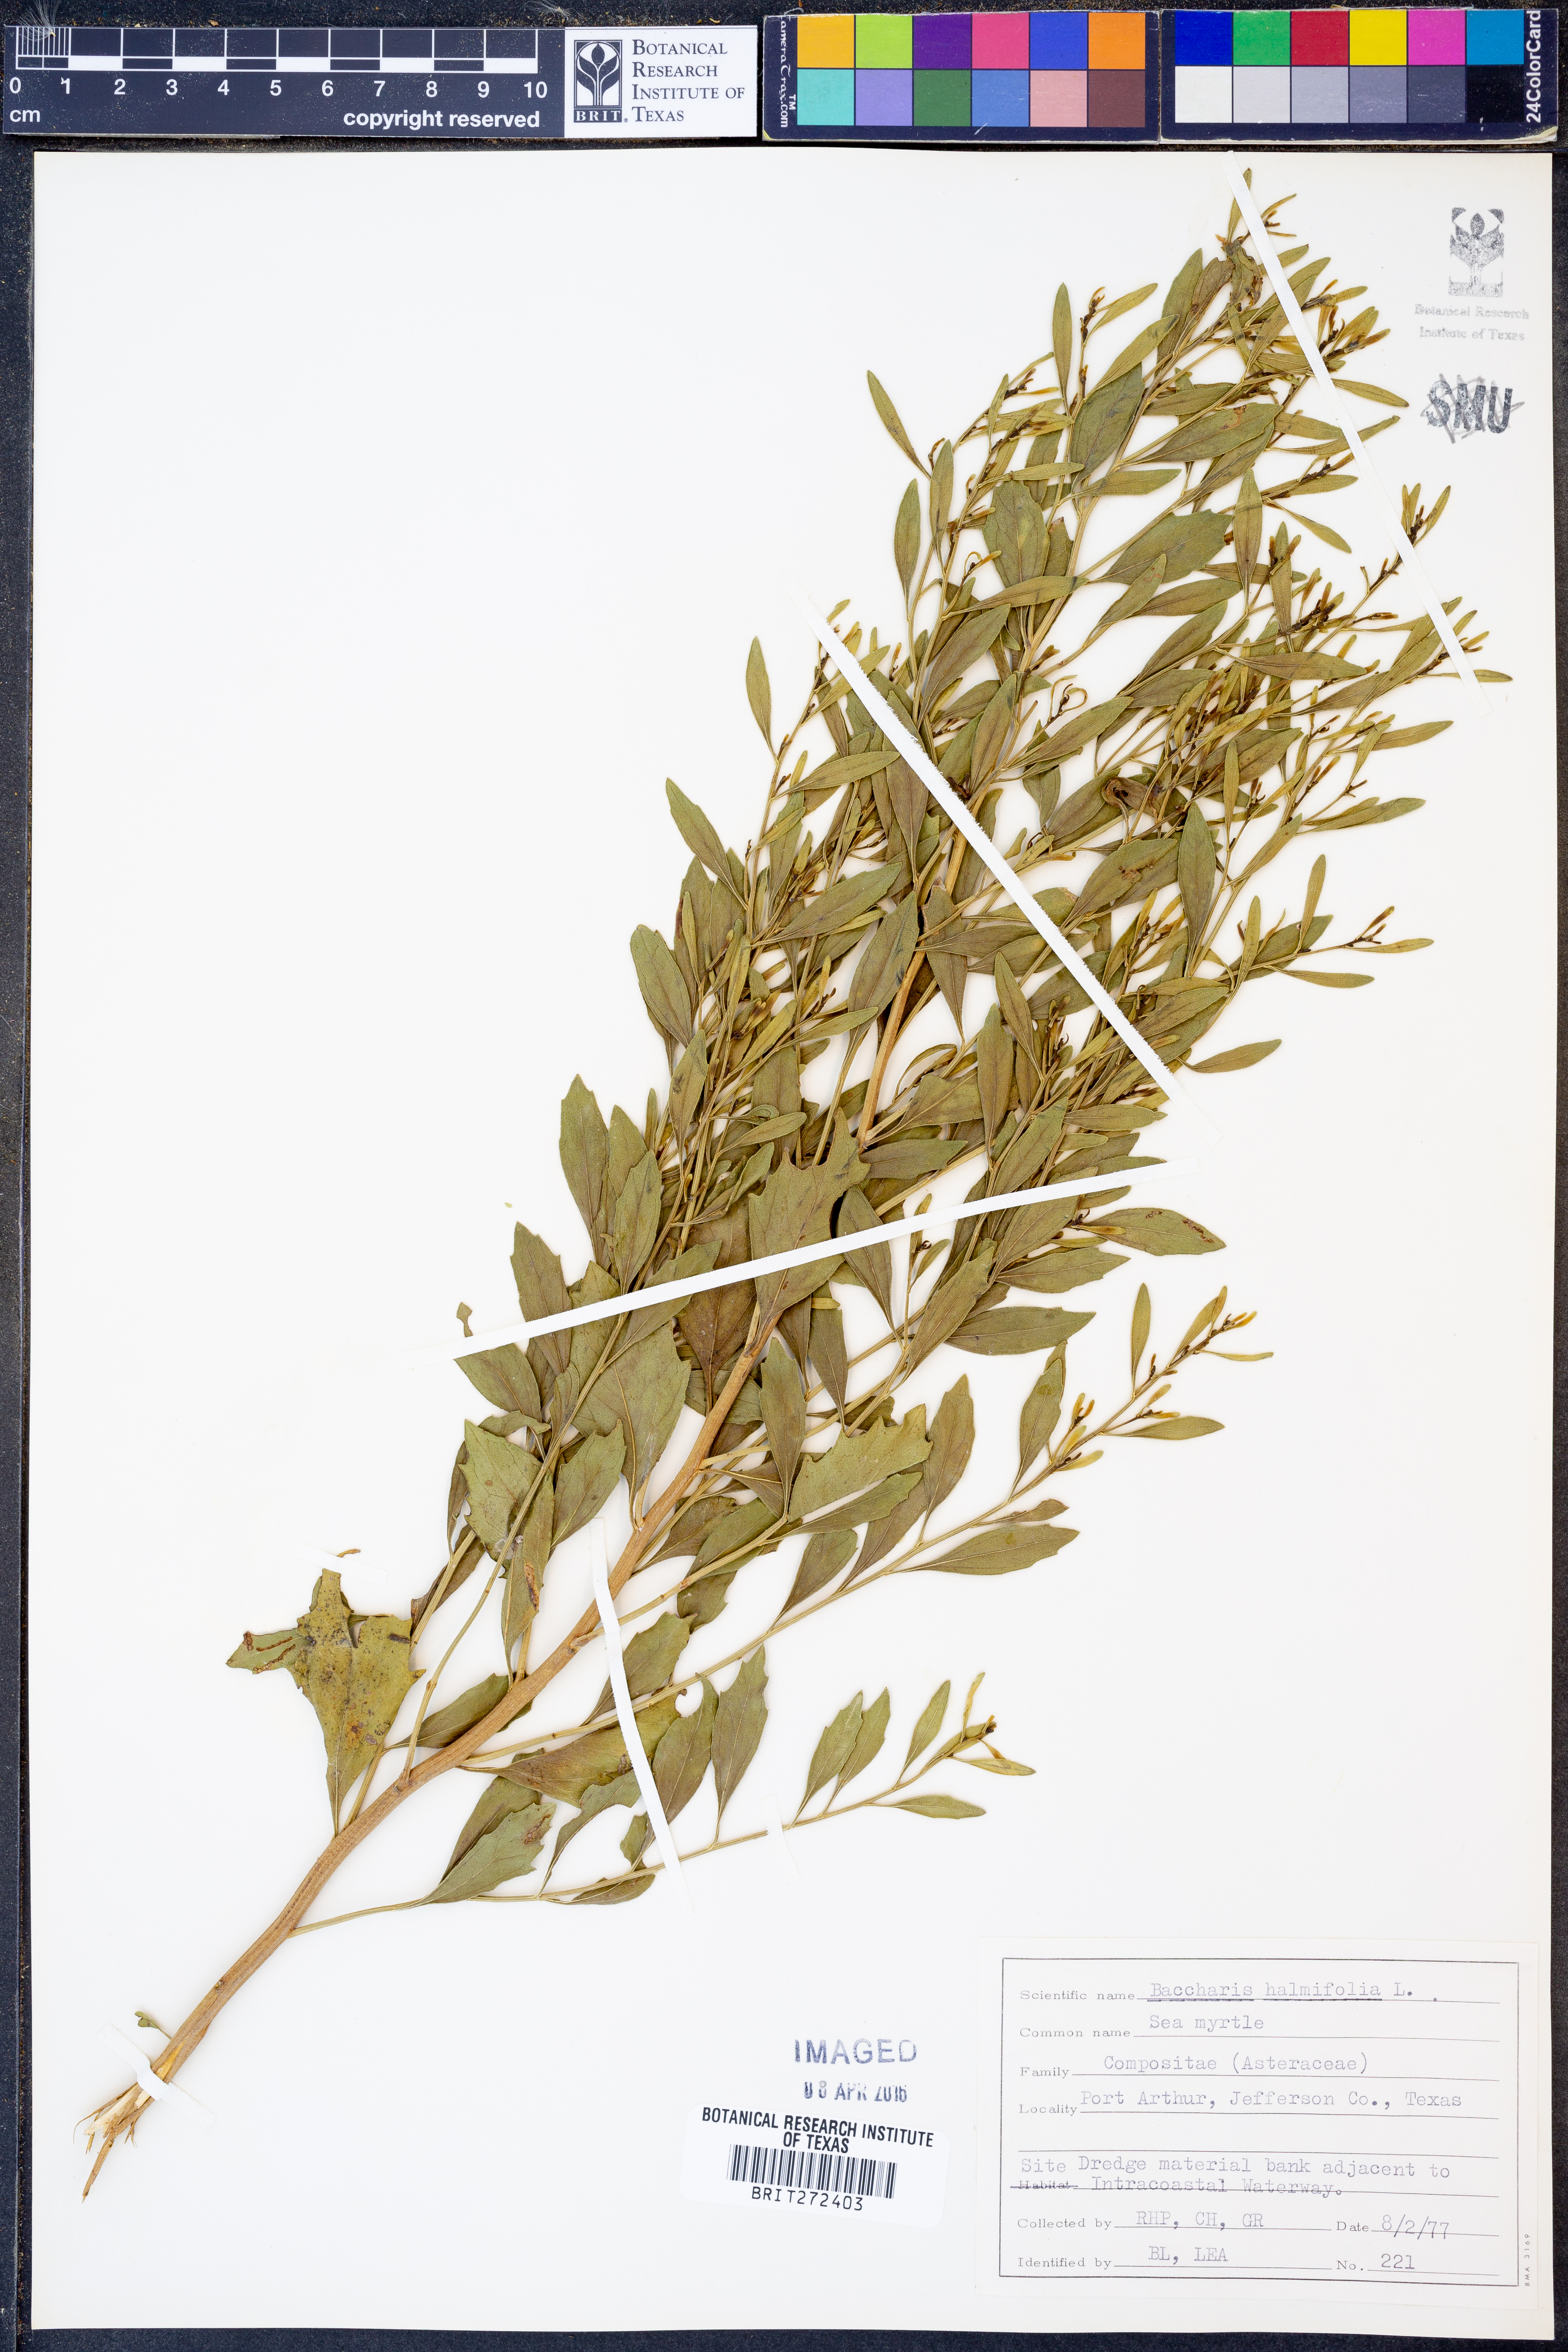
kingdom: Plantae
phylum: Tracheophyta
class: Magnoliopsida
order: Asterales
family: Asteraceae
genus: Nidorella
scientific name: Nidorella ivifolia
